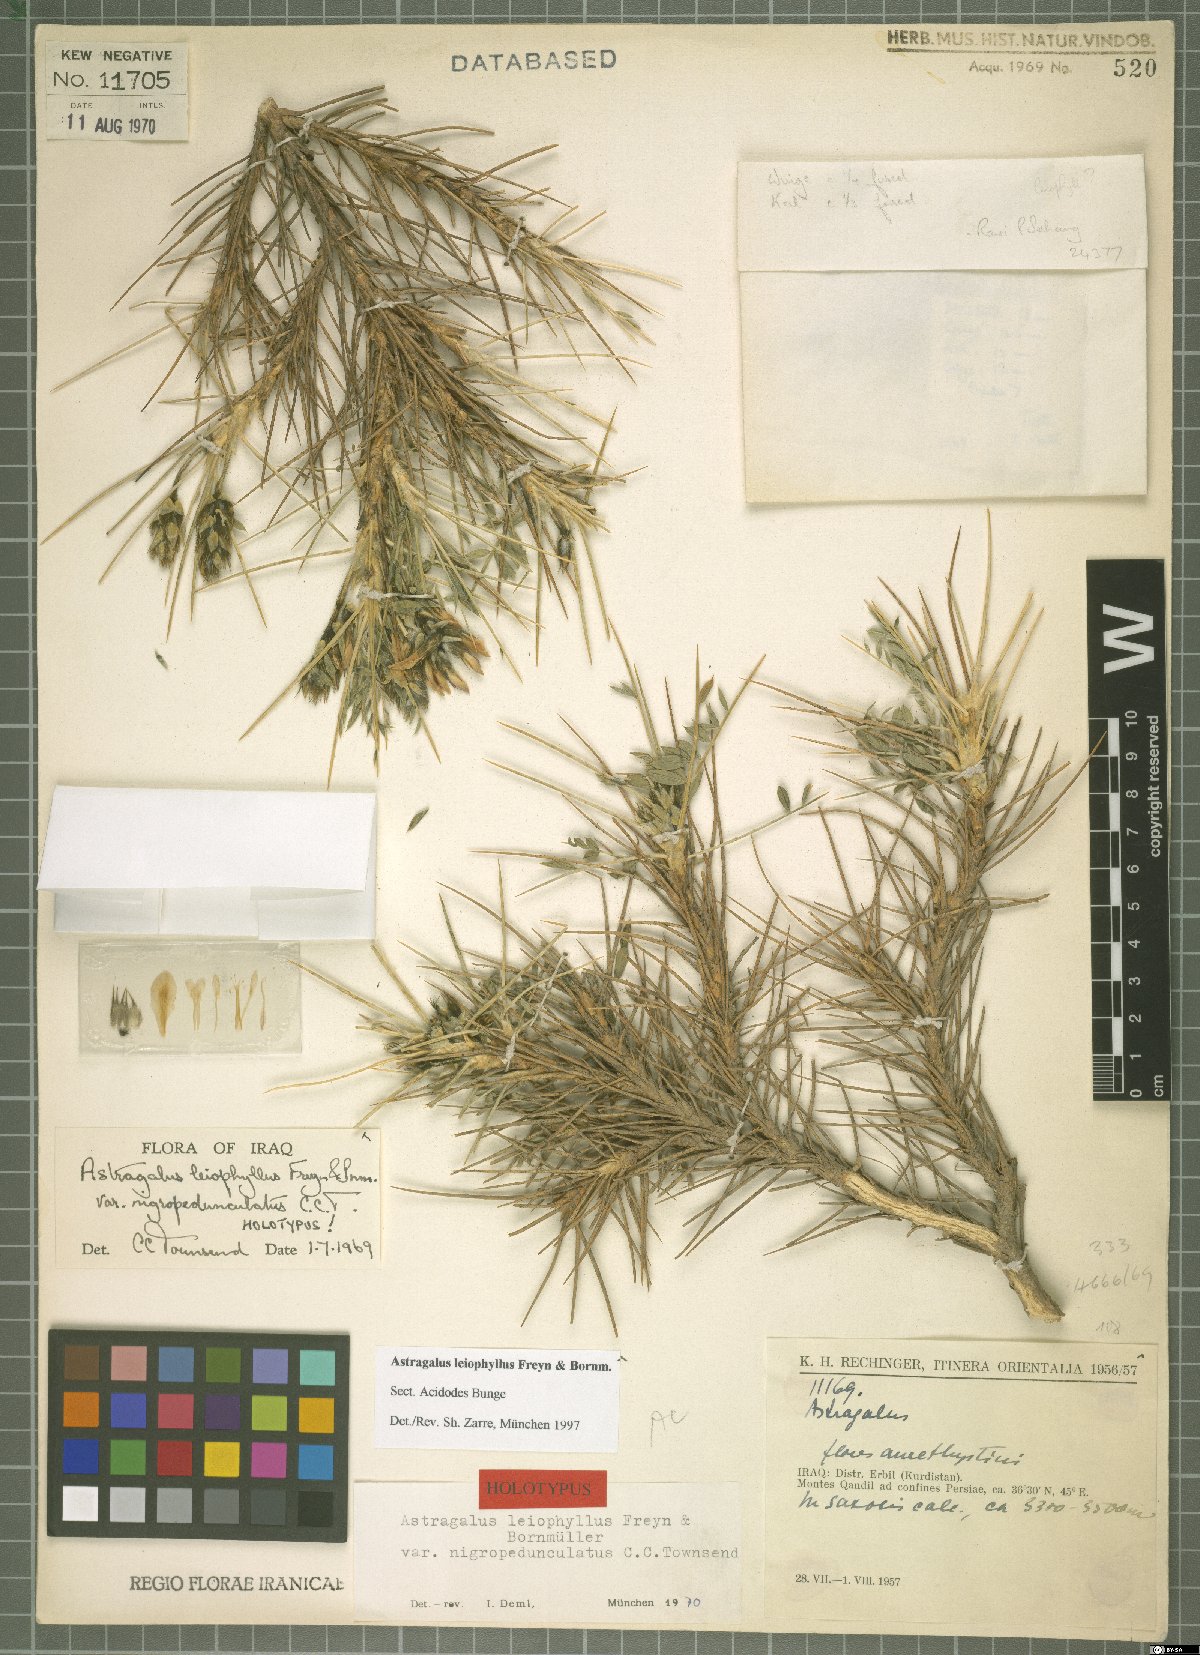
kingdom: Plantae
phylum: Tracheophyta
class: Magnoliopsida
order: Fabales
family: Fabaceae
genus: Astragalus
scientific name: Astragalus leiophyllus
